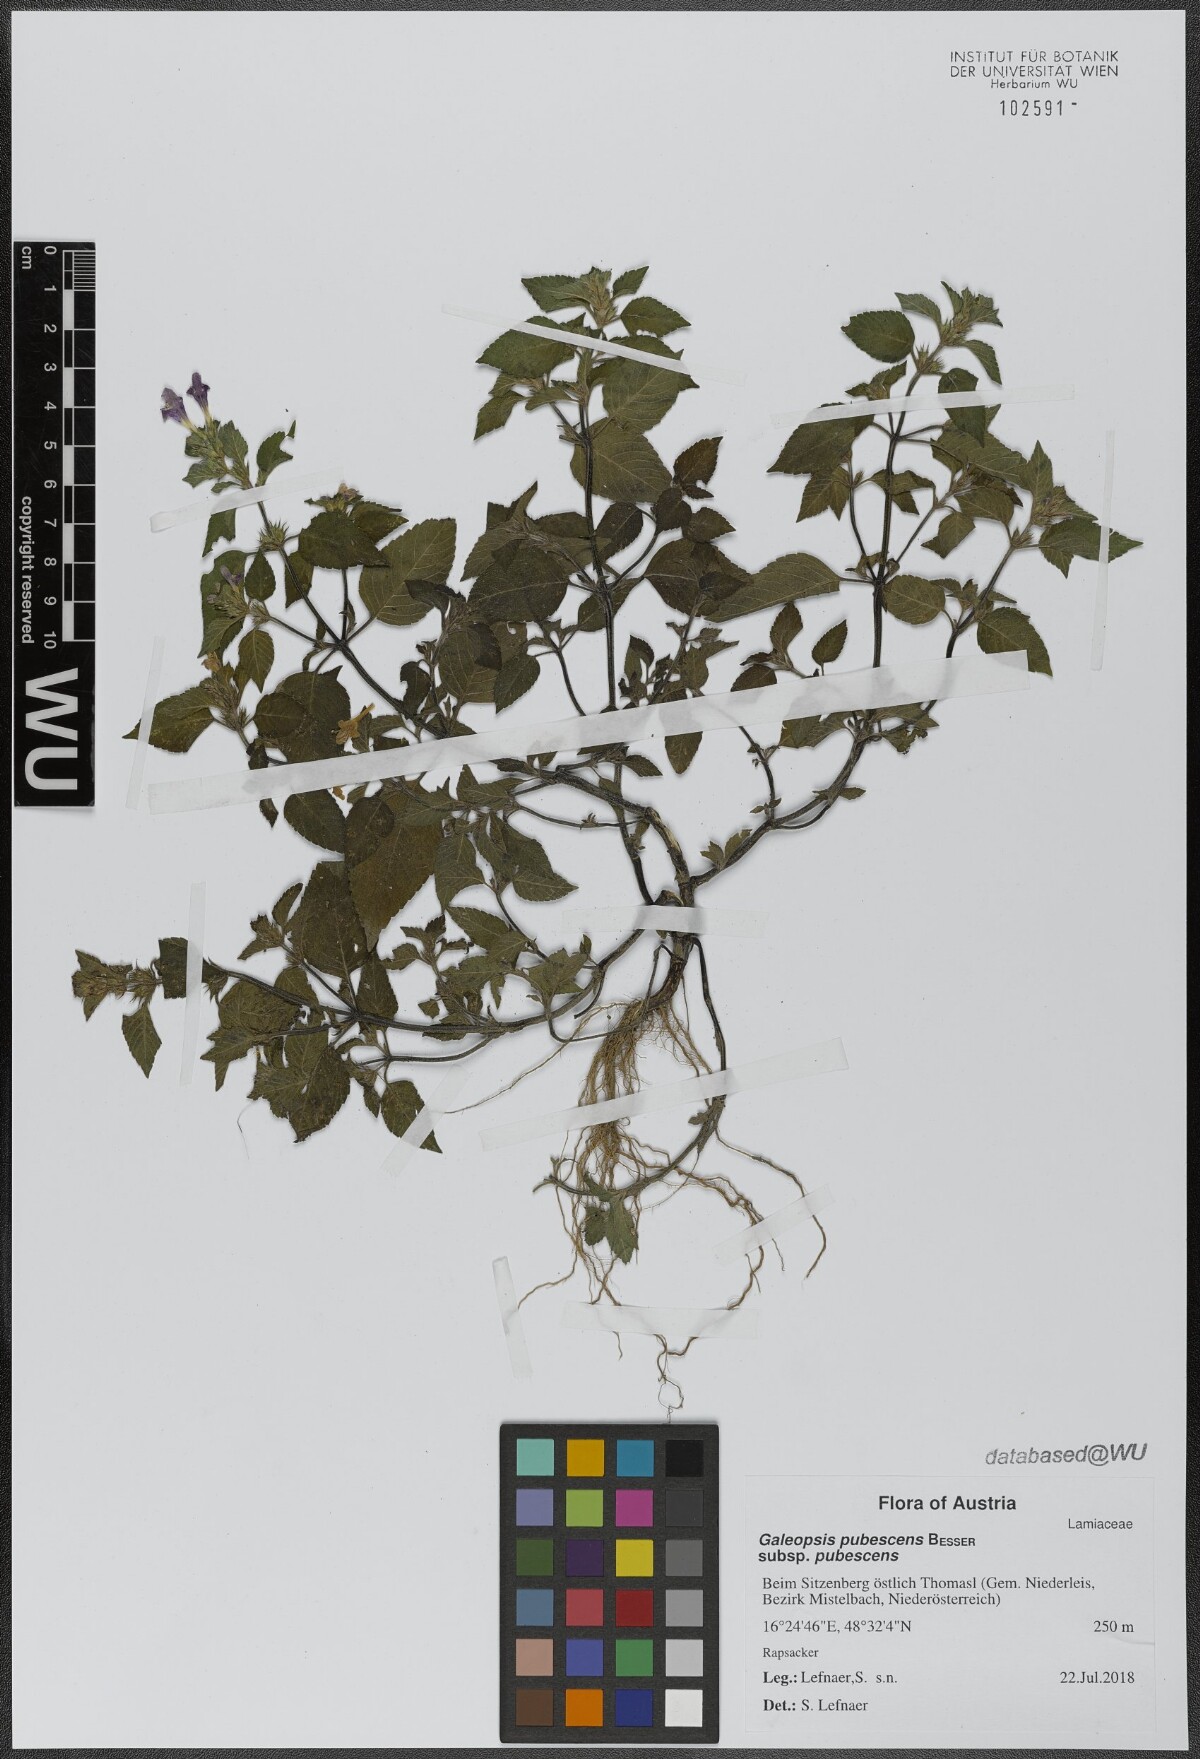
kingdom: Plantae
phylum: Tracheophyta
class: Magnoliopsida
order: Lamiales
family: Lamiaceae
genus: Galeopsis
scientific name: Galeopsis pubescens
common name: Downy hemp-nettle
